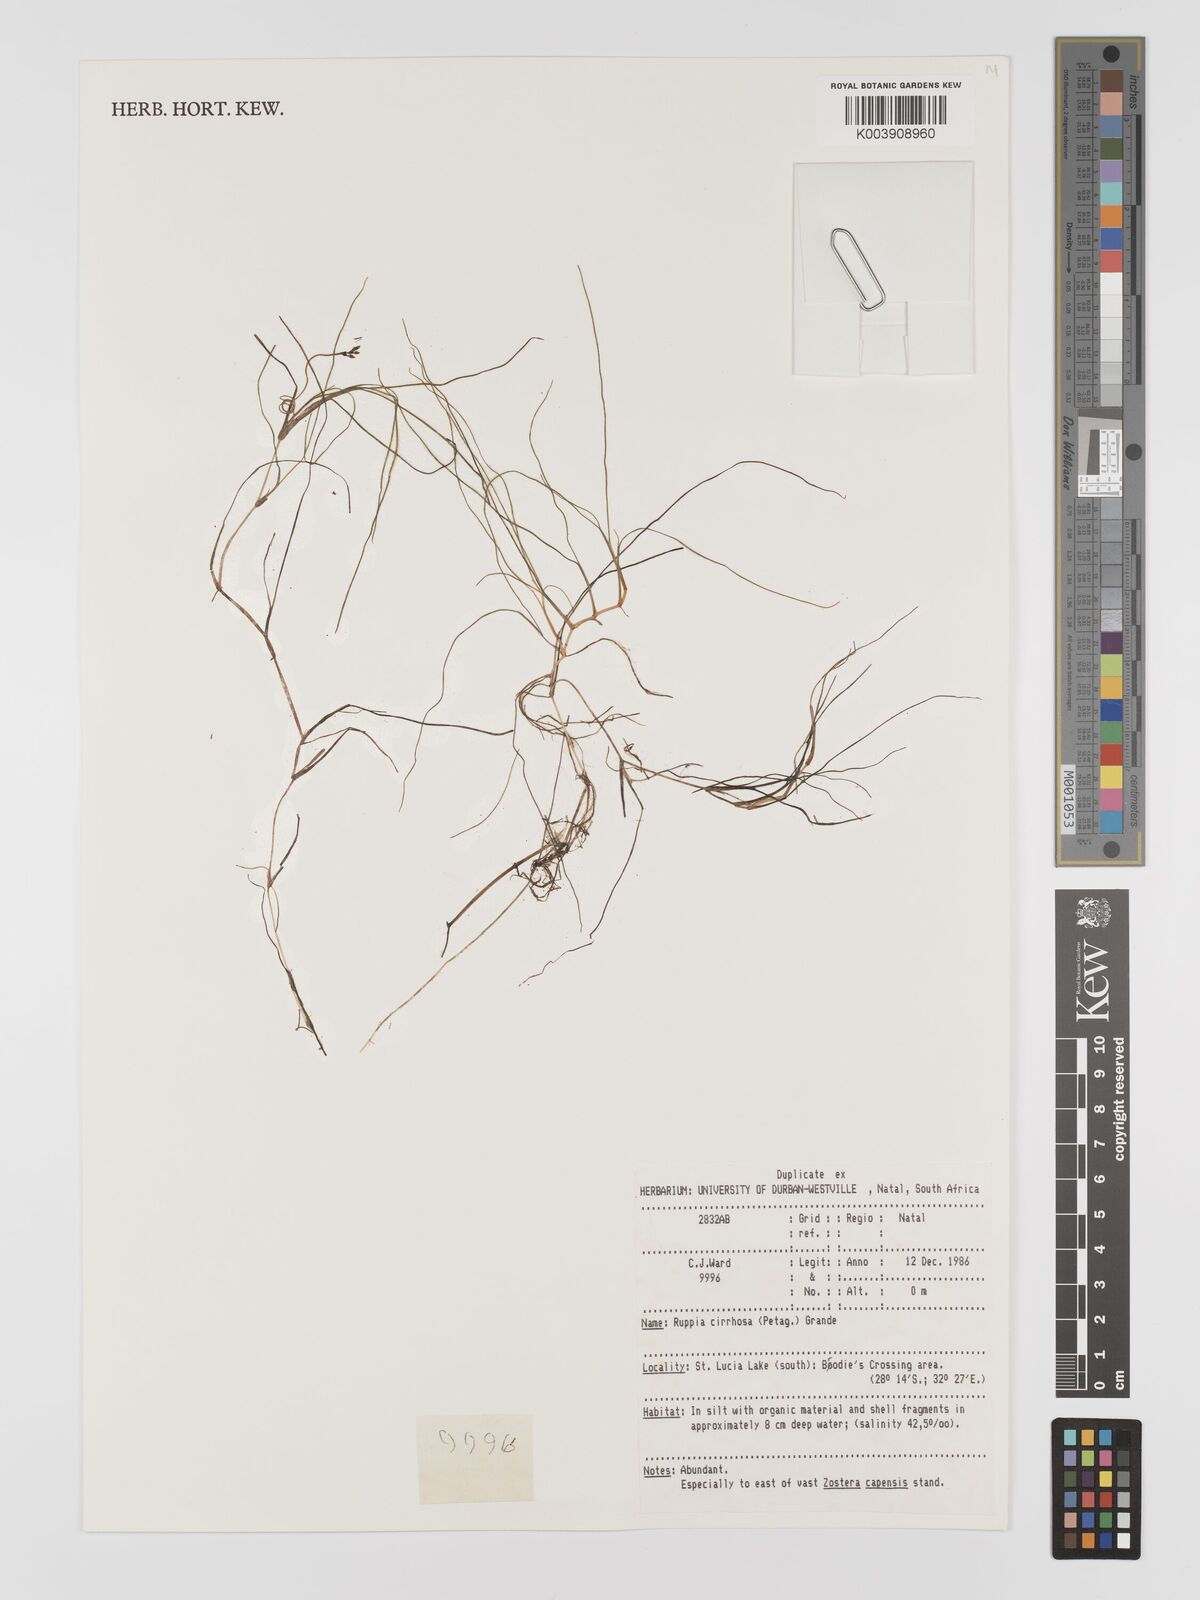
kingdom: Plantae
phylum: Tracheophyta
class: Liliopsida
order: Alismatales
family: Ruppiaceae
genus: Ruppia
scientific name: Ruppia cirrhosa
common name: Spiral tasselweed
